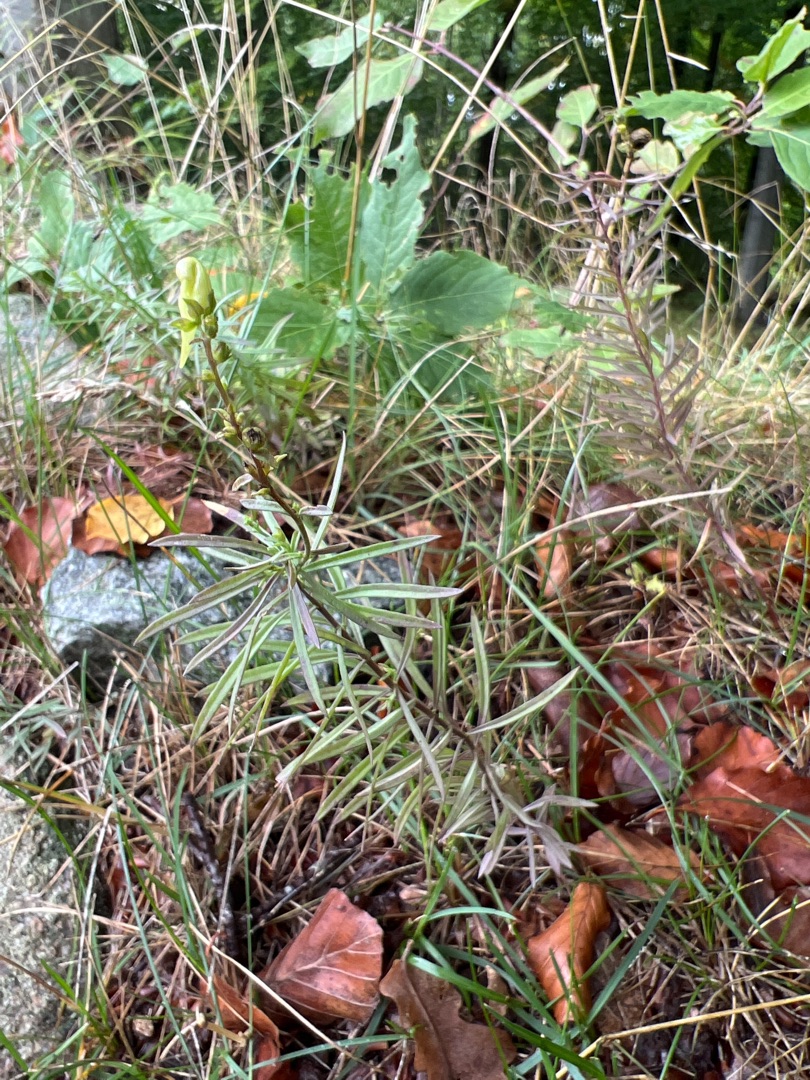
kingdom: Plantae
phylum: Tracheophyta
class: Magnoliopsida
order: Lamiales
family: Plantaginaceae
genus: Linaria
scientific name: Linaria vulgaris
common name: Almindelig torskemund
